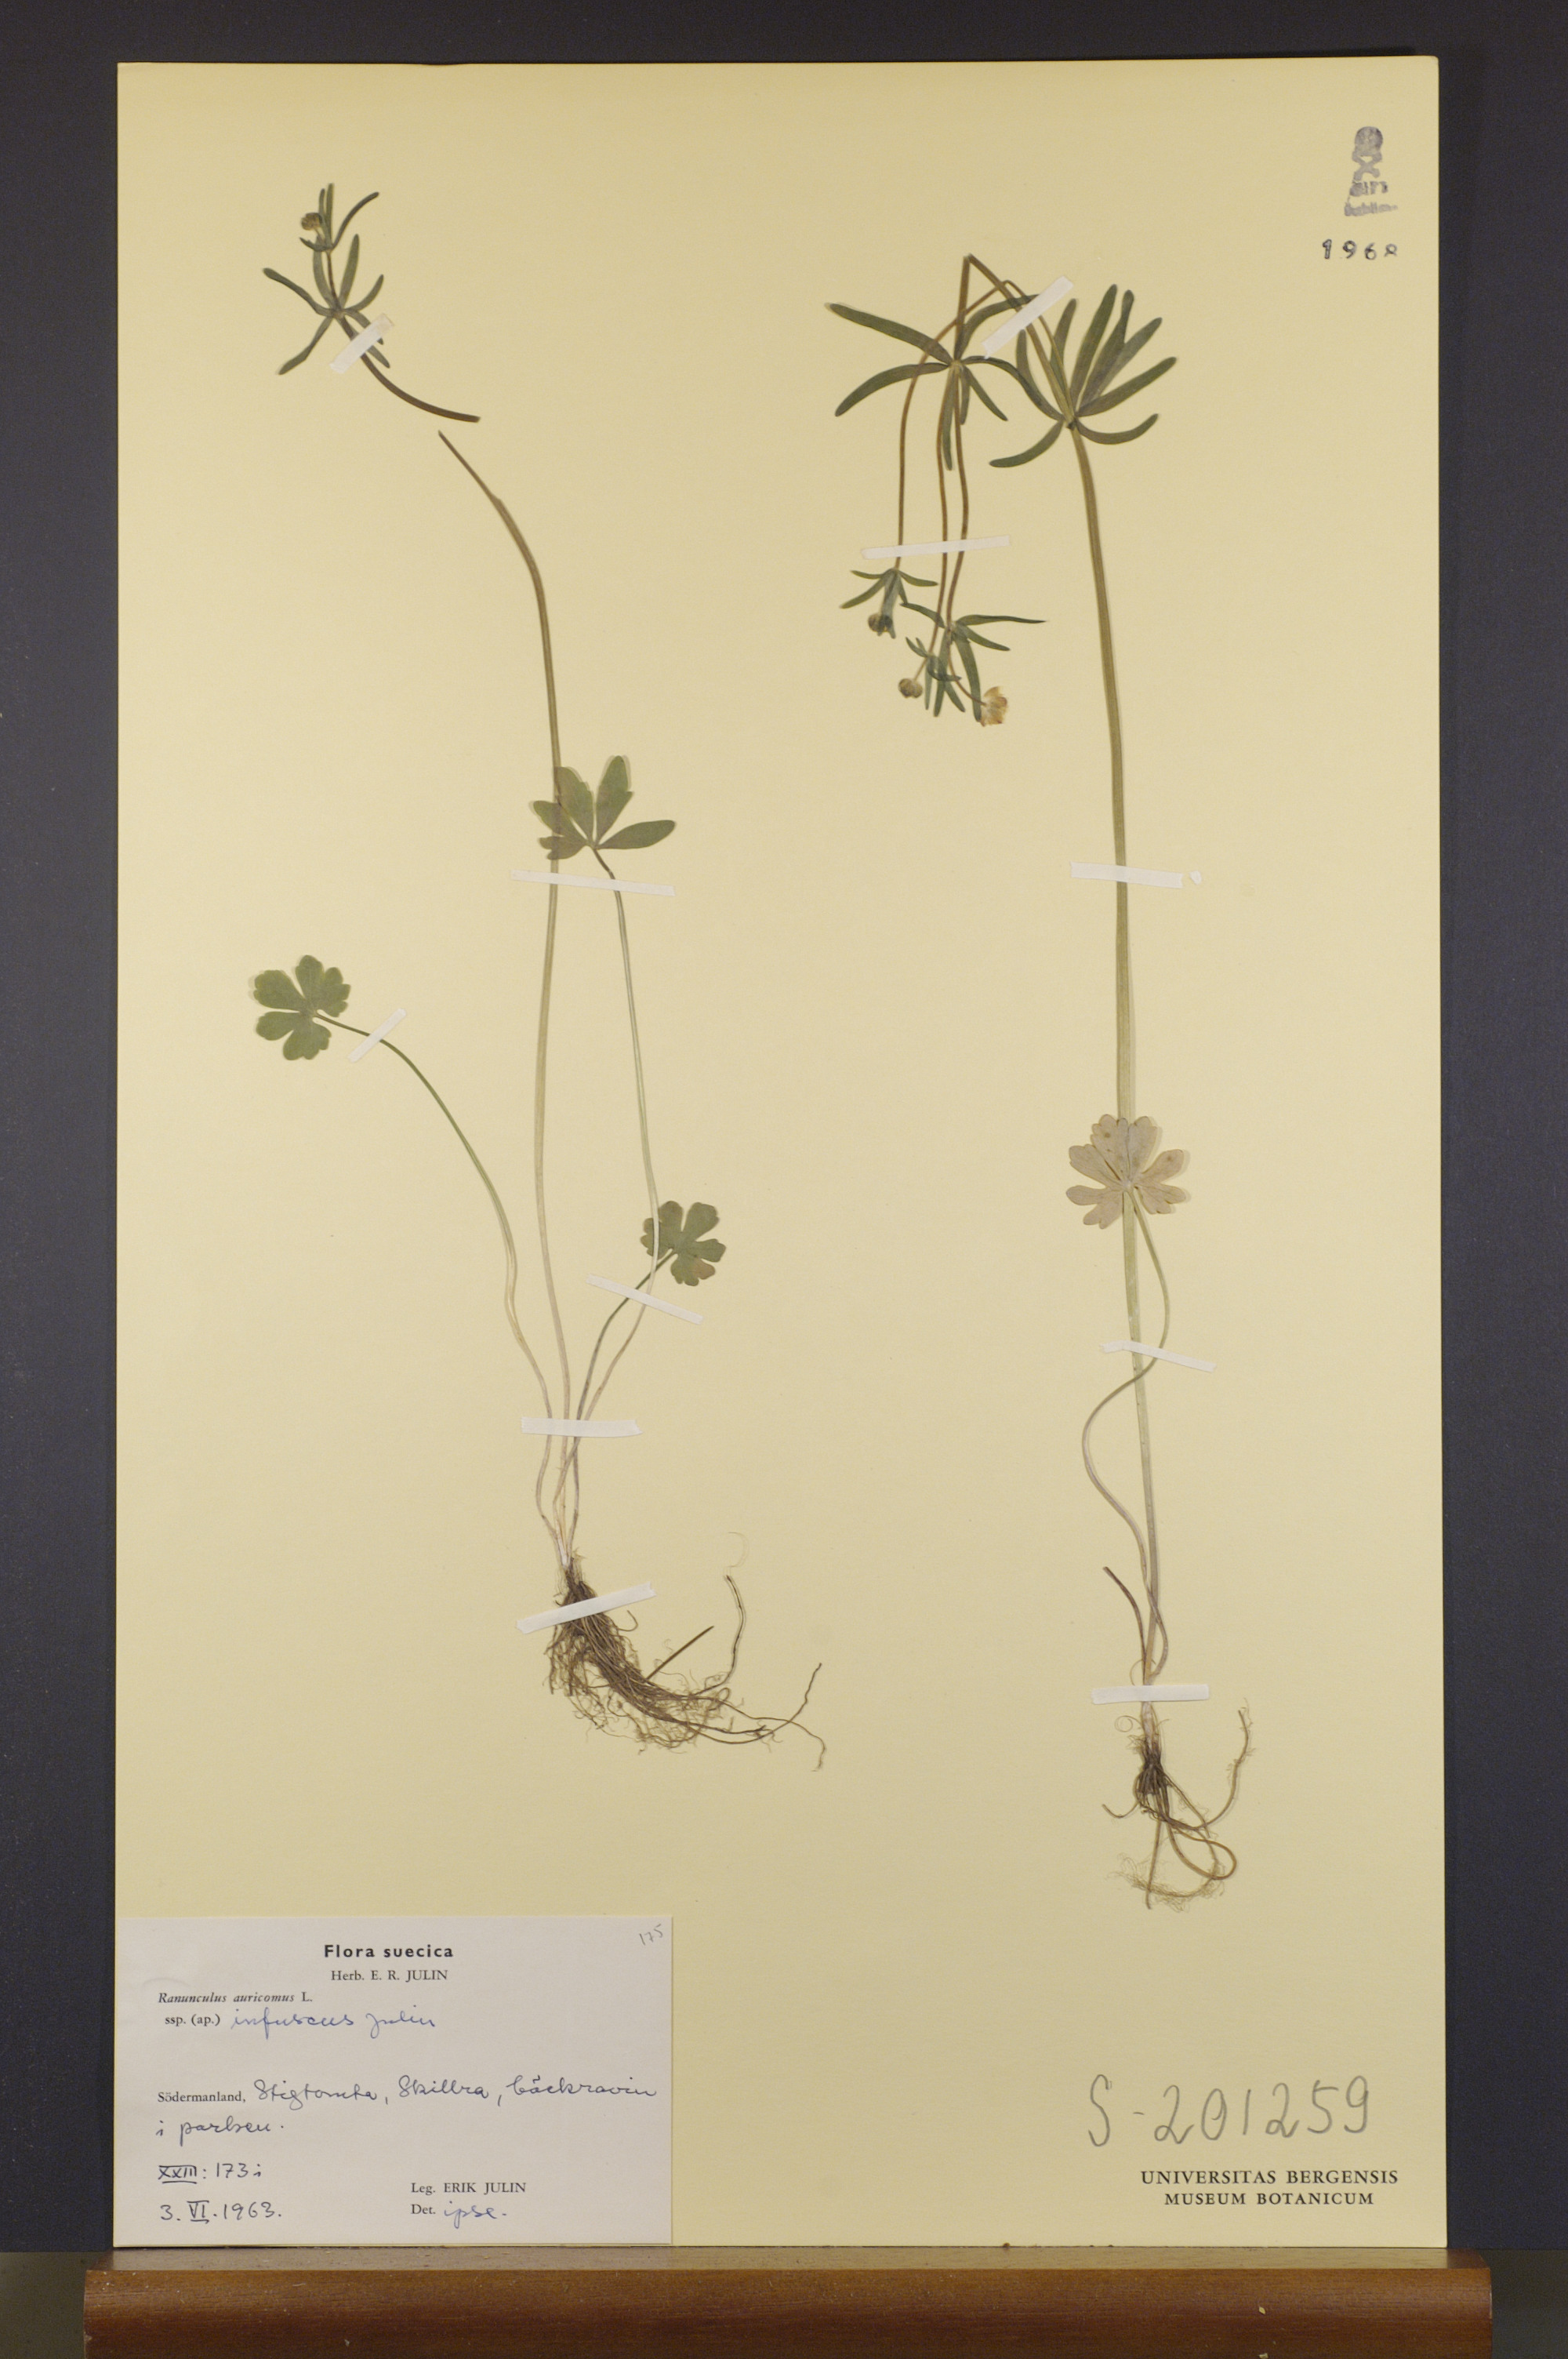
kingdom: Plantae
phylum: Tracheophyta
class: Magnoliopsida
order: Ranunculales
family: Ranunculaceae
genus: Ranunculus
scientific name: Ranunculus infuscus
